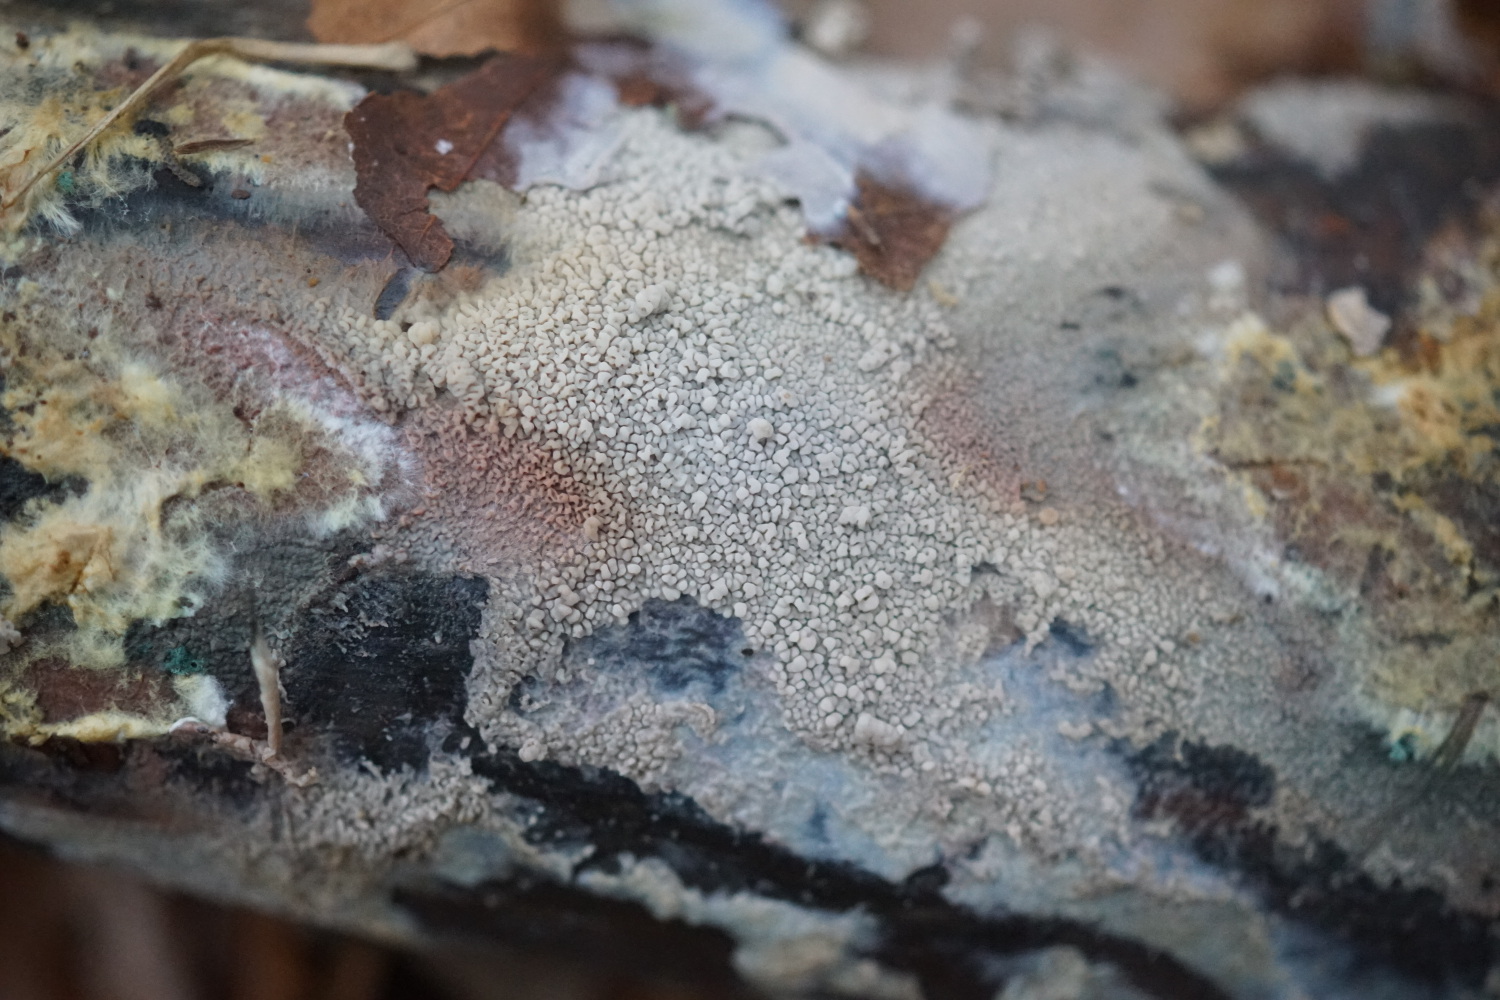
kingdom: Fungi
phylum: Basidiomycota
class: Agaricomycetes
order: Corticiales
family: Corticiaceae
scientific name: Corticiaceae
